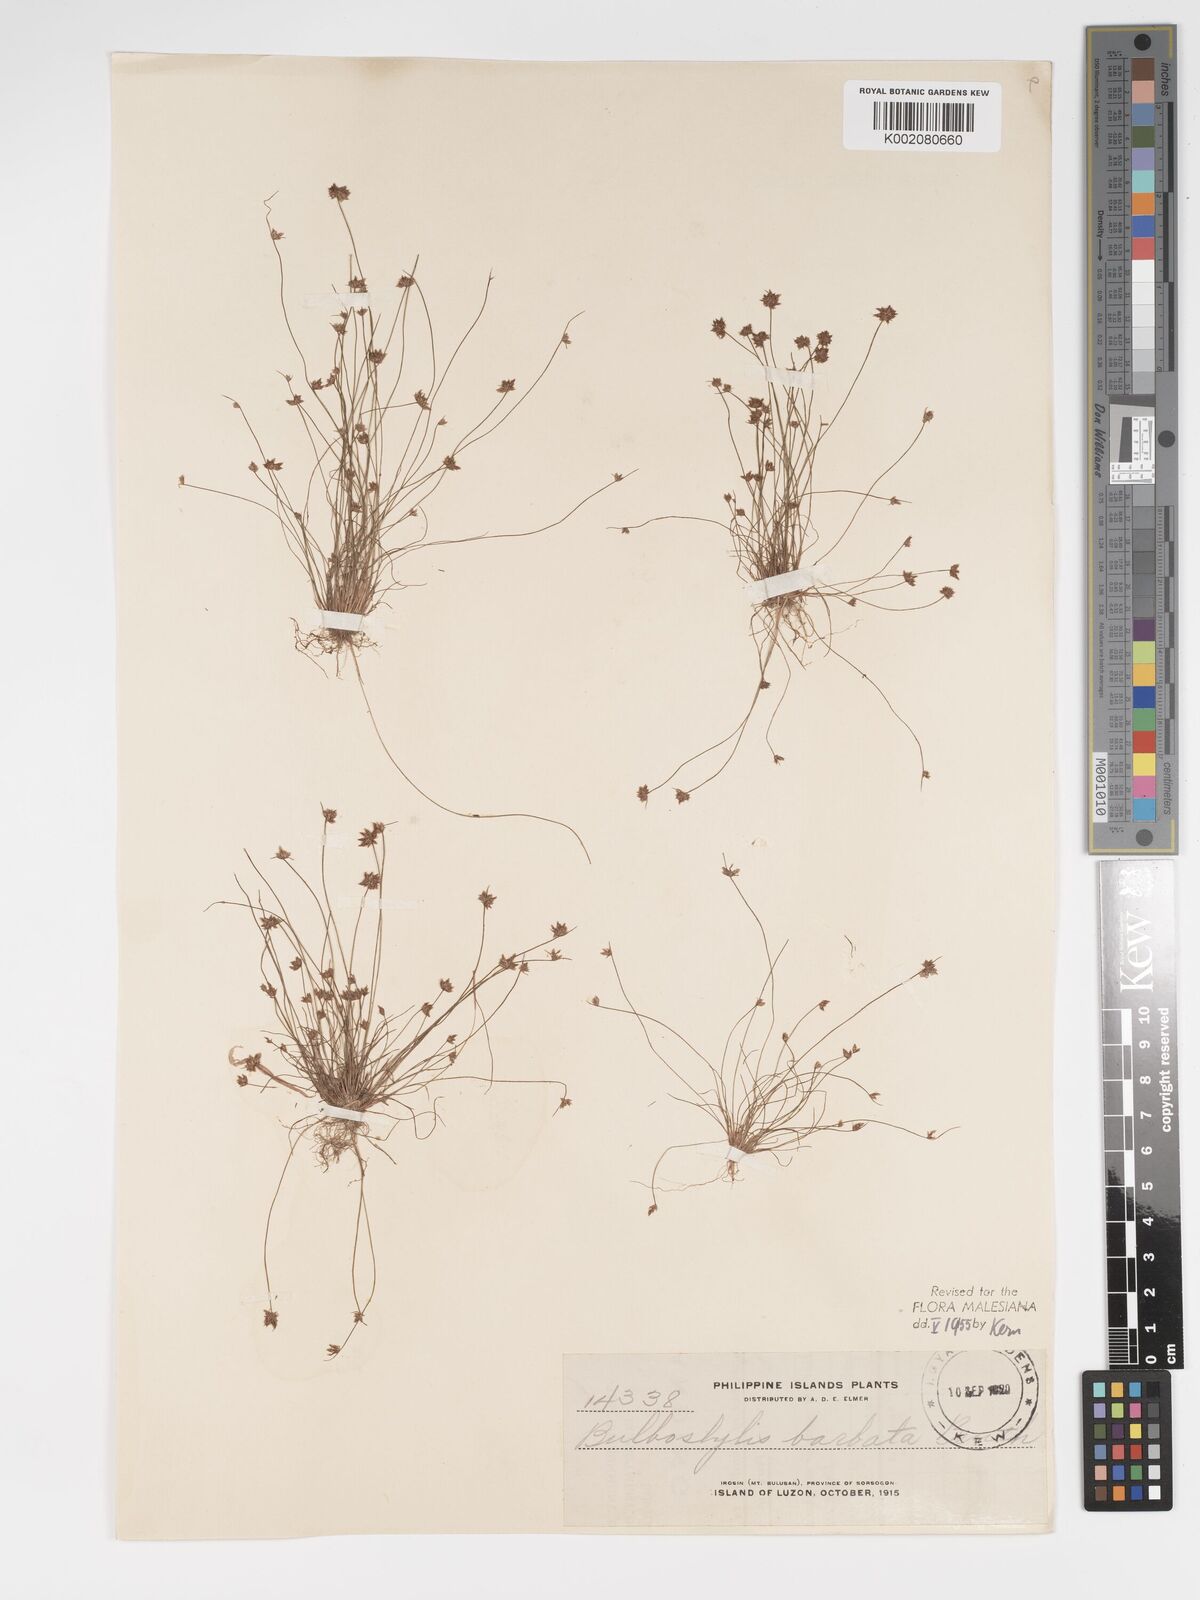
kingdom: Plantae
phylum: Tracheophyta
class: Liliopsida
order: Poales
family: Cyperaceae
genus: Bulbostylis
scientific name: Bulbostylis barbata
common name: Watergrass
